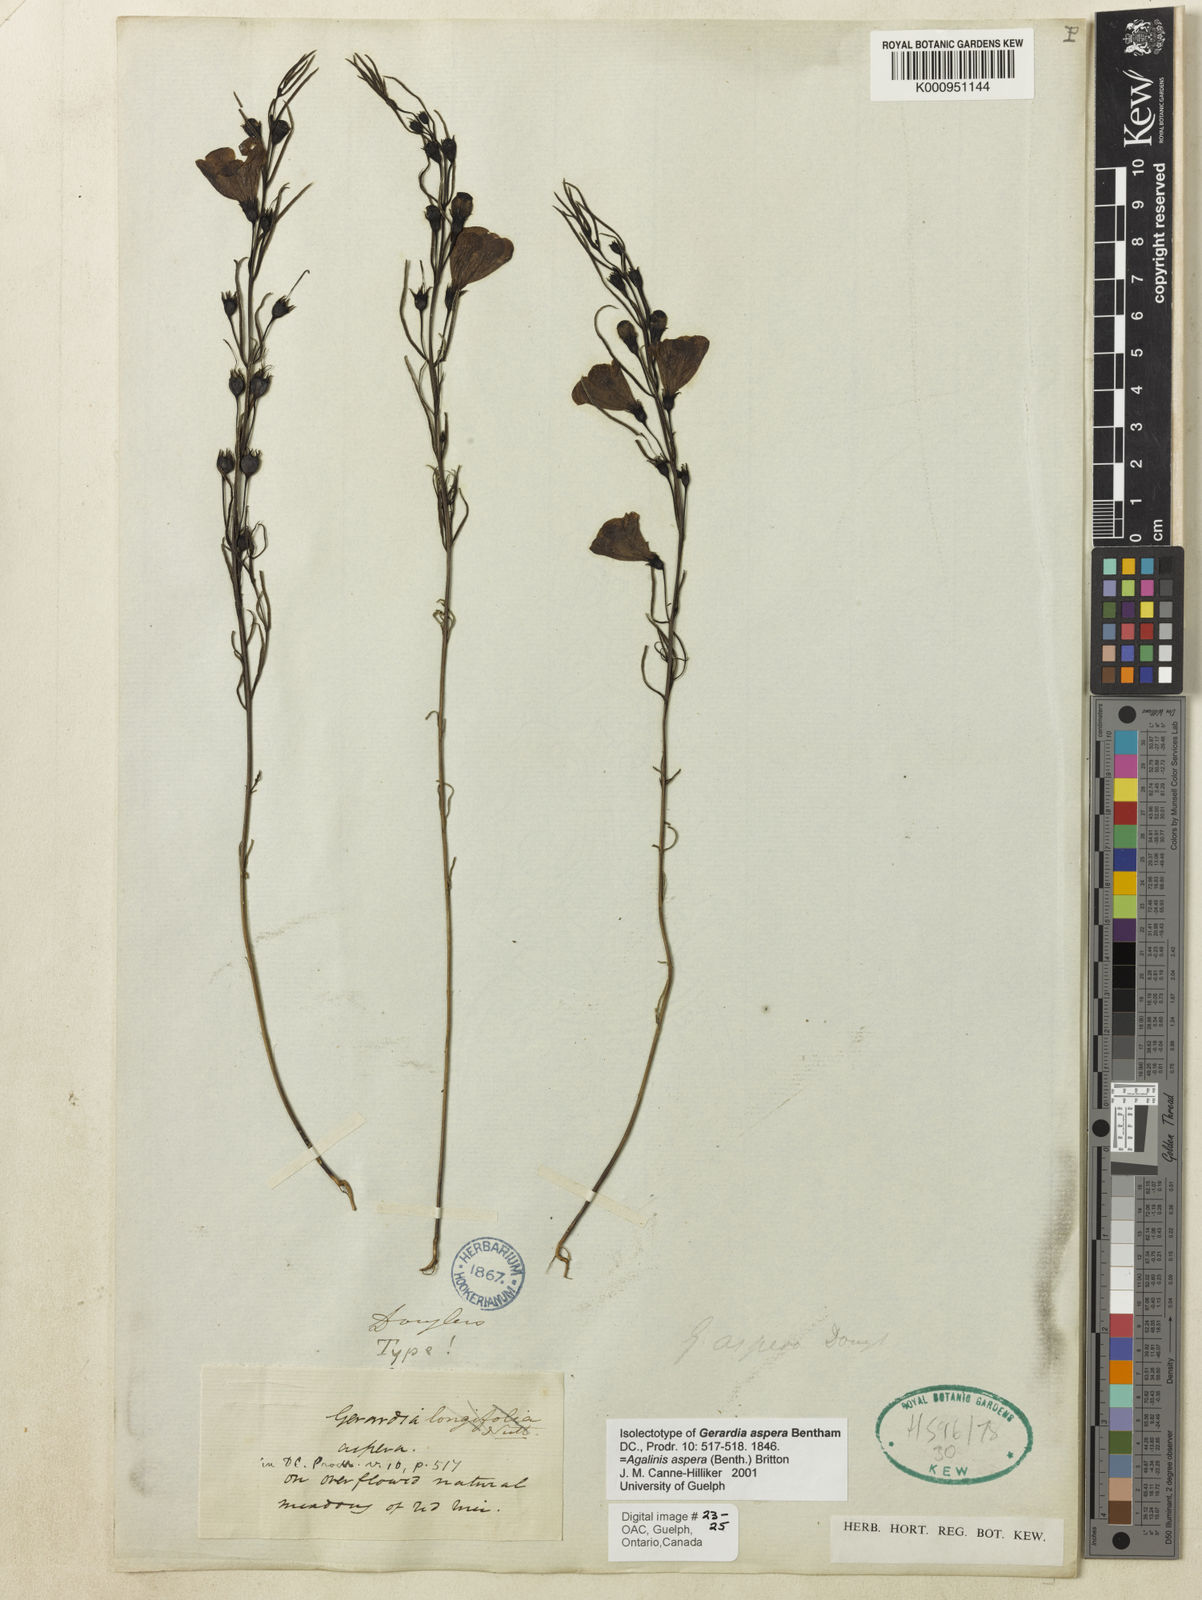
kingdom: Plantae
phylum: Tracheophyta
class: Magnoliopsida
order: Lamiales
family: Orobanchaceae
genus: Agalinis
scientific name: Agalinis aspera
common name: Rough agalinis
